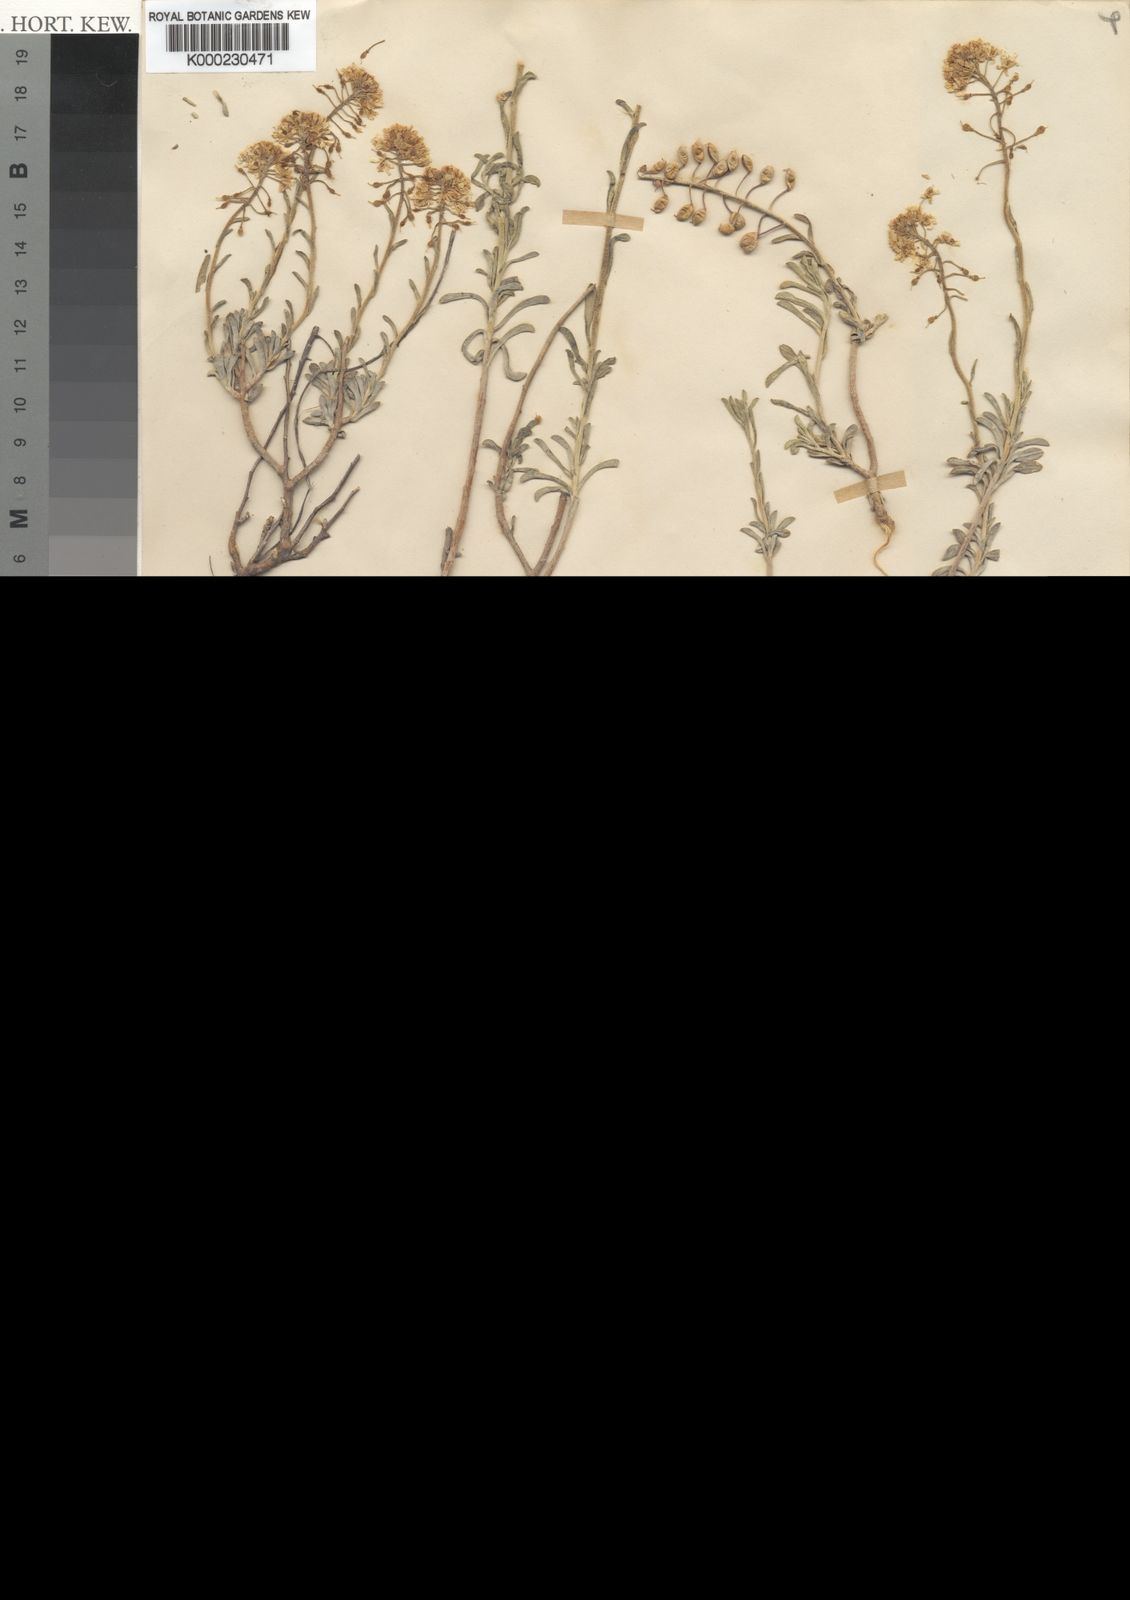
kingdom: Plantae
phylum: Tracheophyta
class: Magnoliopsida
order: Brassicales
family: Brassicaceae
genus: Hormathophylla
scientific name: Hormathophylla cochleata
